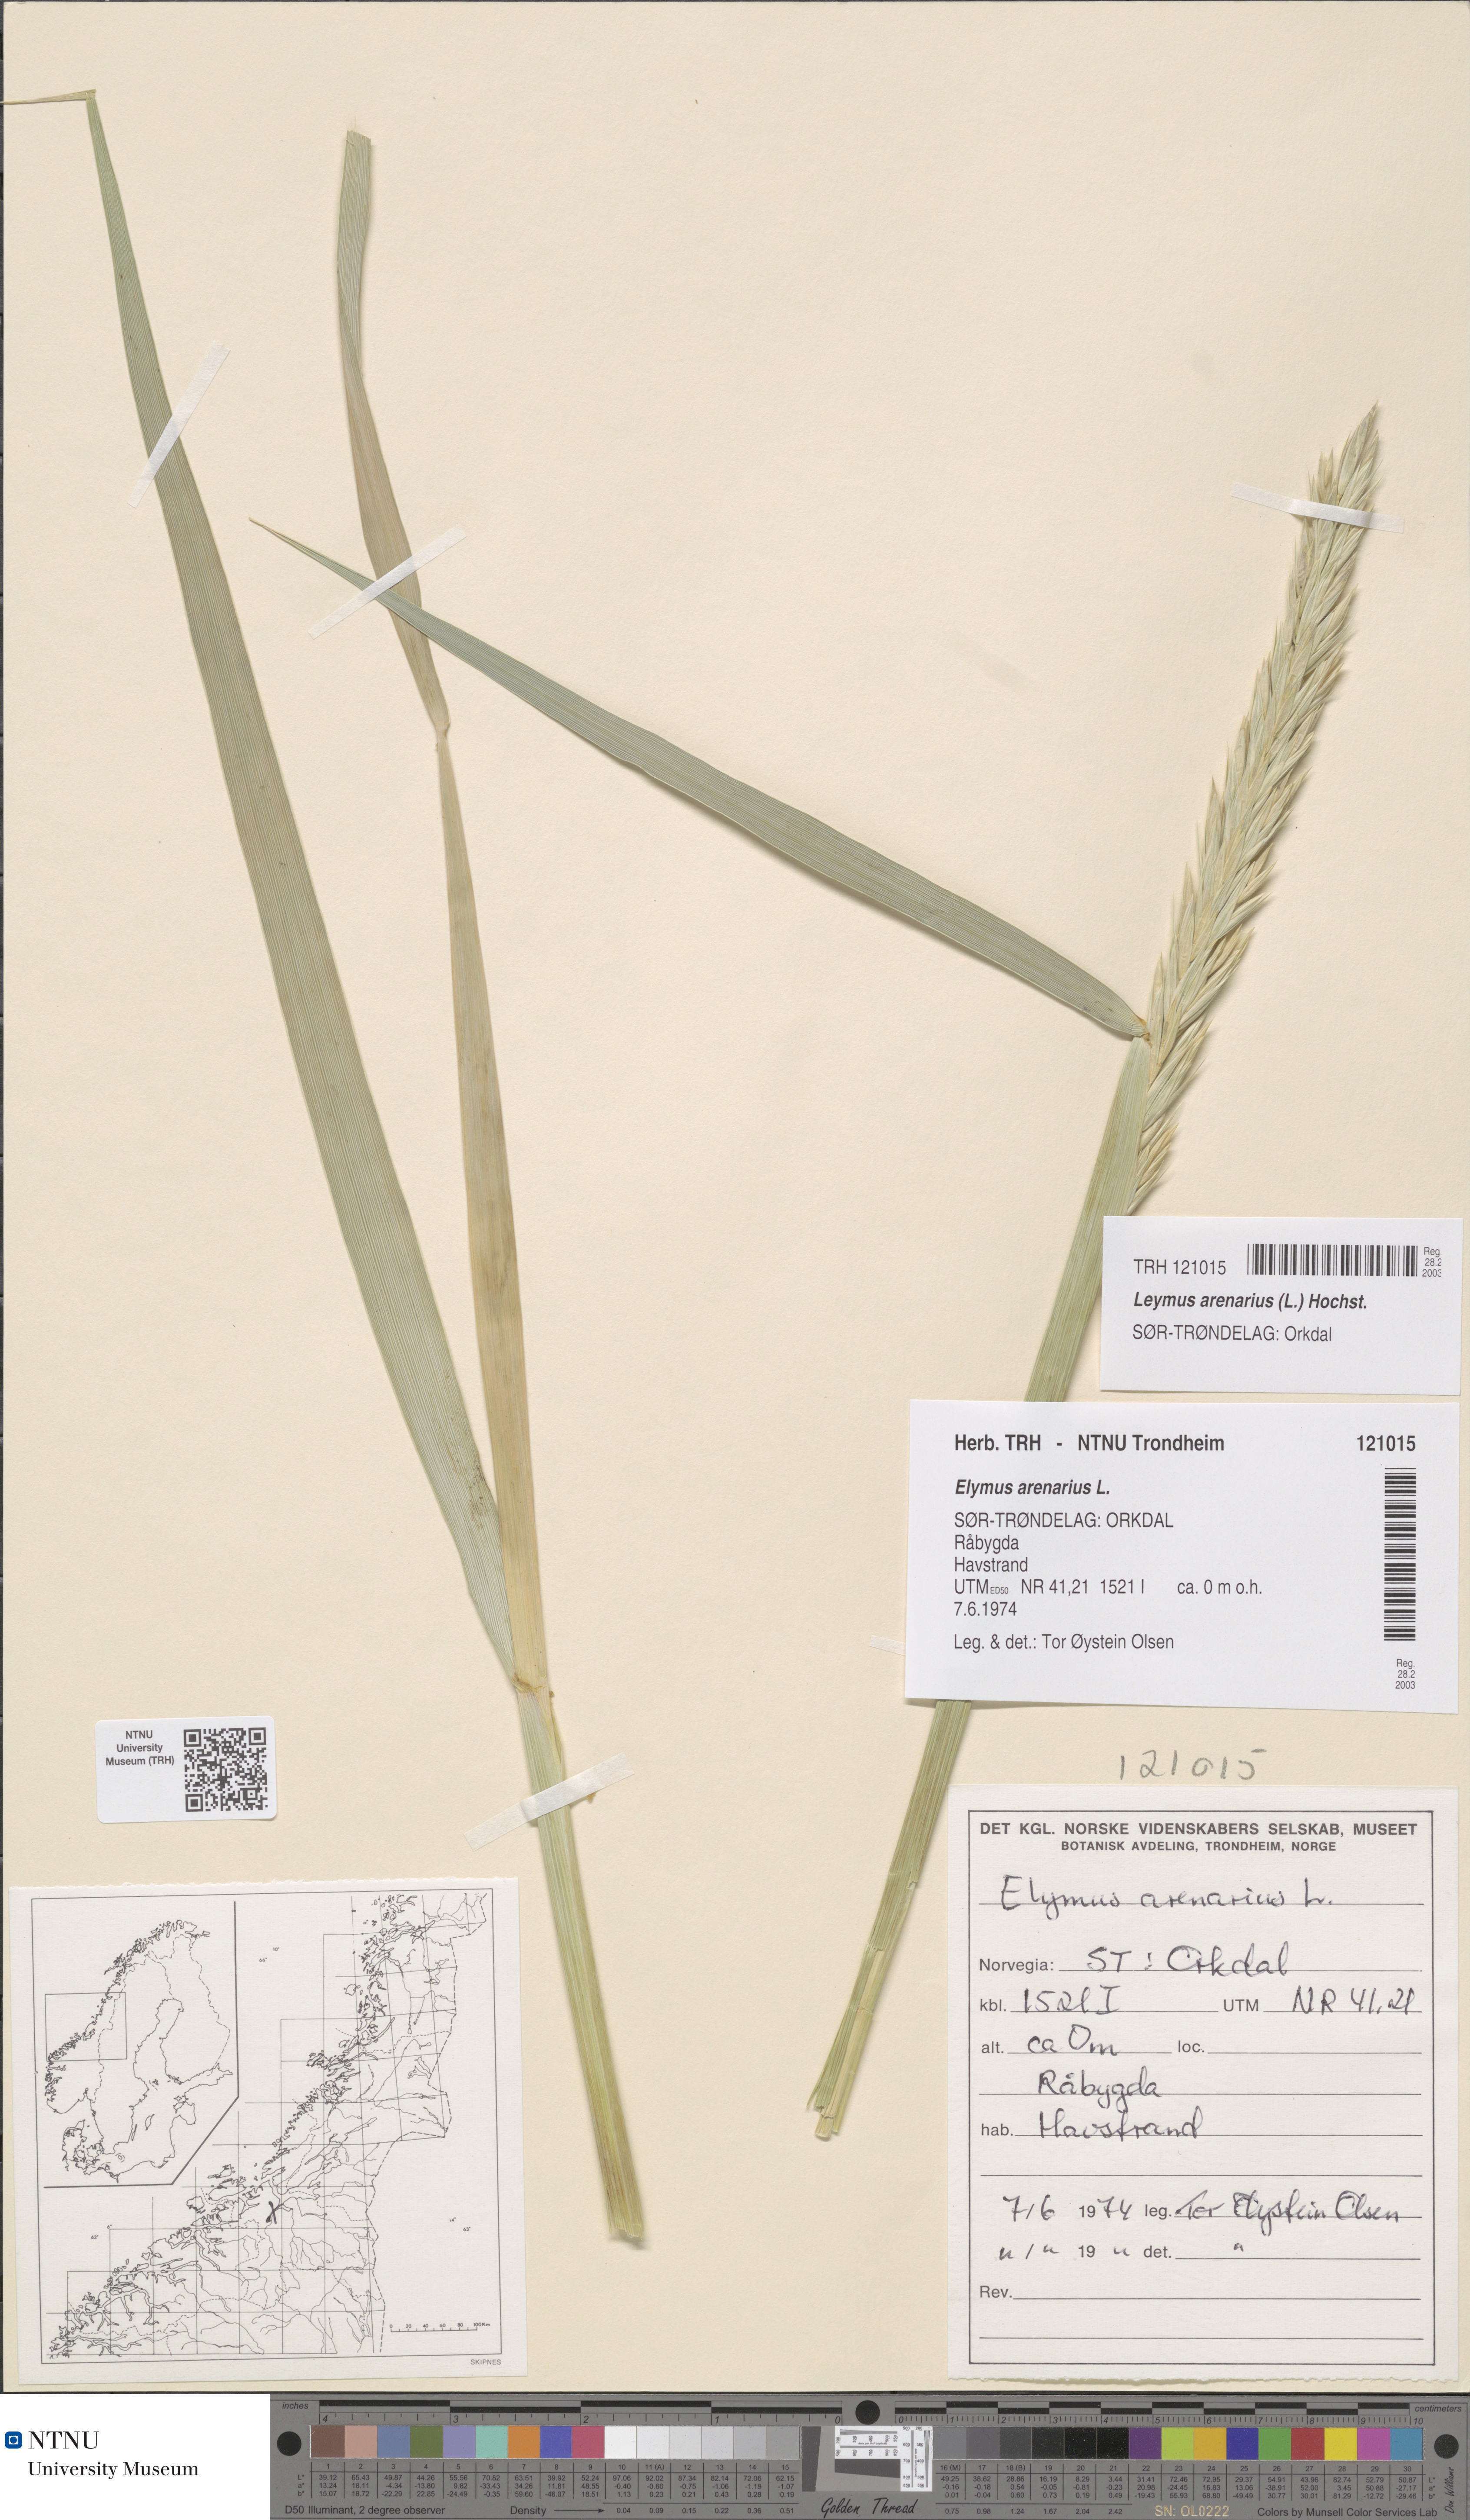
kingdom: Plantae
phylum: Tracheophyta
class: Liliopsida
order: Poales
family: Poaceae
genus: Leymus
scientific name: Leymus arenarius
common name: Lyme-grass
